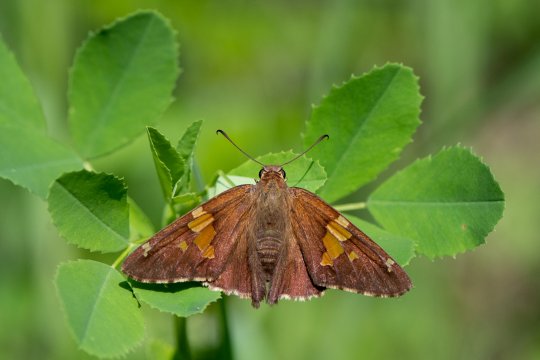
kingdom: Animalia
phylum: Arthropoda
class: Insecta
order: Lepidoptera
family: Hesperiidae
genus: Epargyreus
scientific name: Epargyreus clarus
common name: Silver-spotted Skipper
